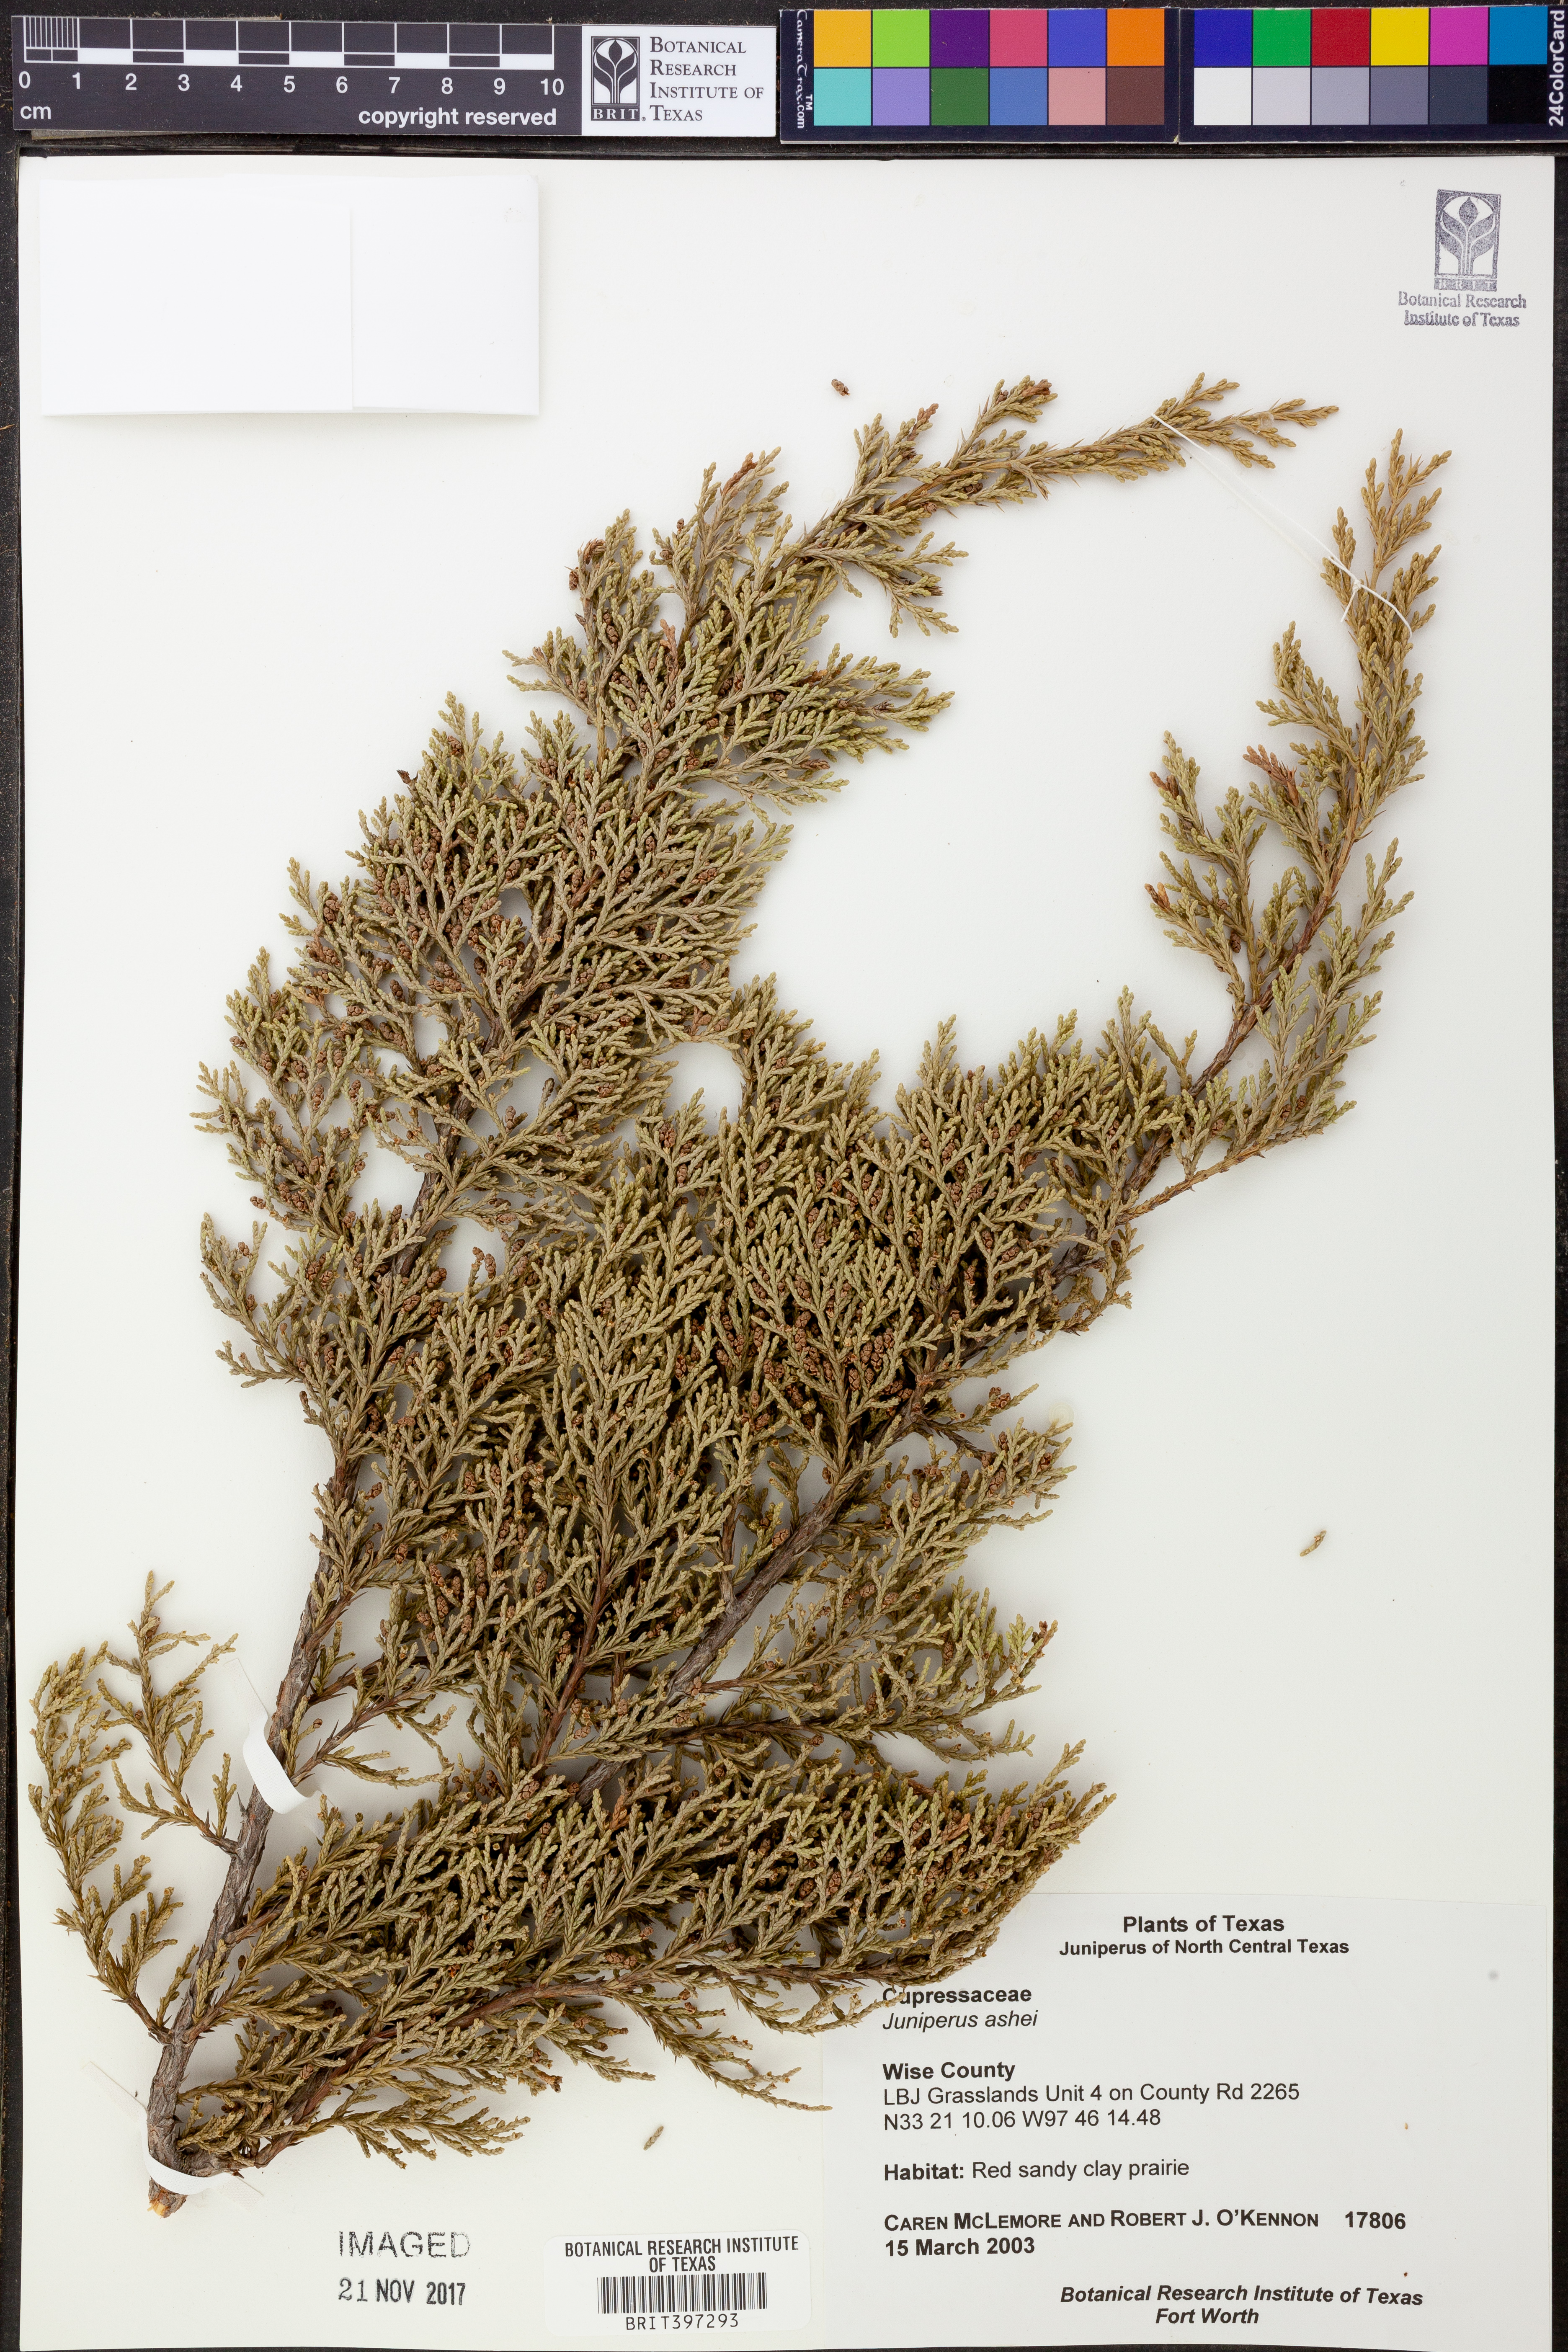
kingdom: Plantae
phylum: Tracheophyta
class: Pinopsida
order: Pinales
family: Cupressaceae
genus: Juniperus
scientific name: Juniperus ashei
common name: Mexican juniper
